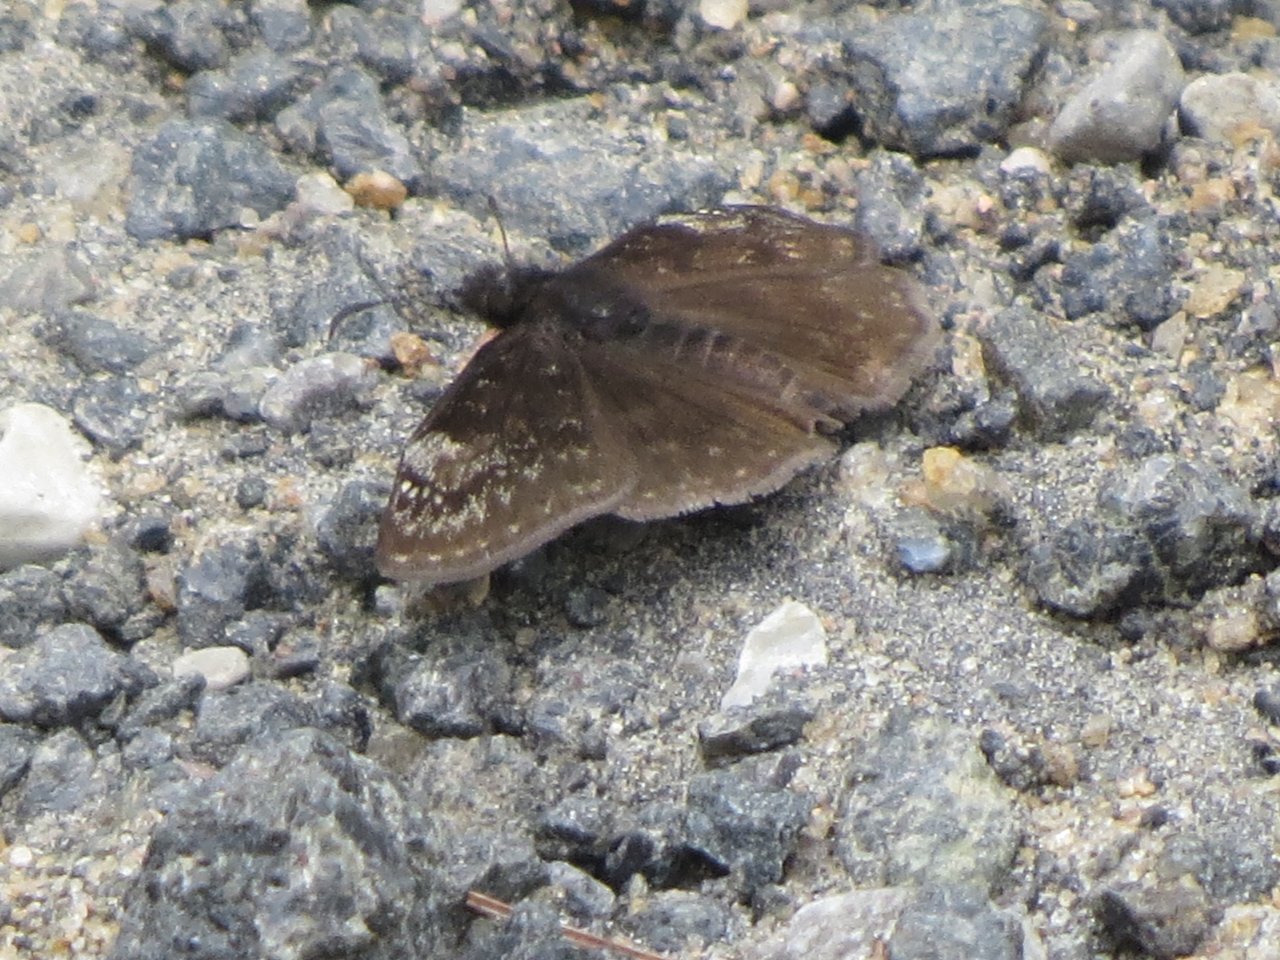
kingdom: Animalia
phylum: Arthropoda
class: Insecta
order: Lepidoptera
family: Hesperiidae
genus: Gesta
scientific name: Gesta
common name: Columbine Duskywing
